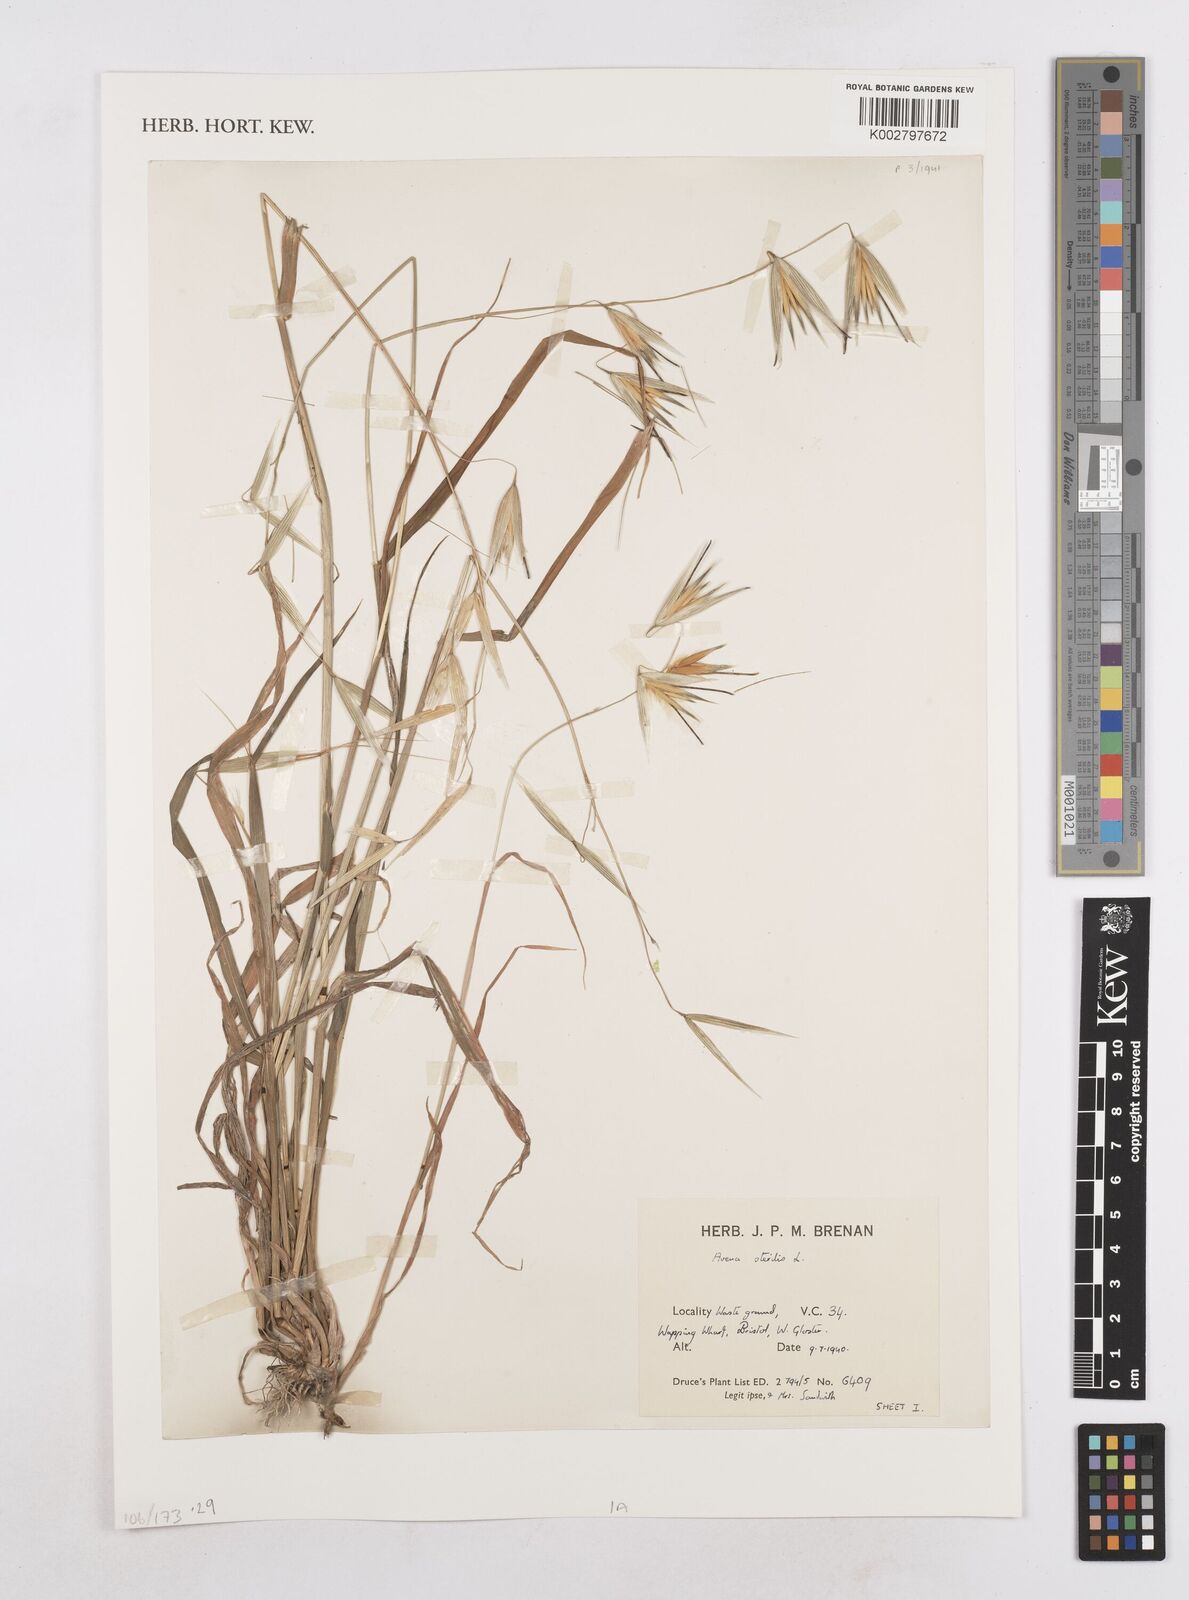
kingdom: Plantae
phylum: Tracheophyta
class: Liliopsida
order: Poales
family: Poaceae
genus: Avena
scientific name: Avena sterilis
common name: Animated oat
